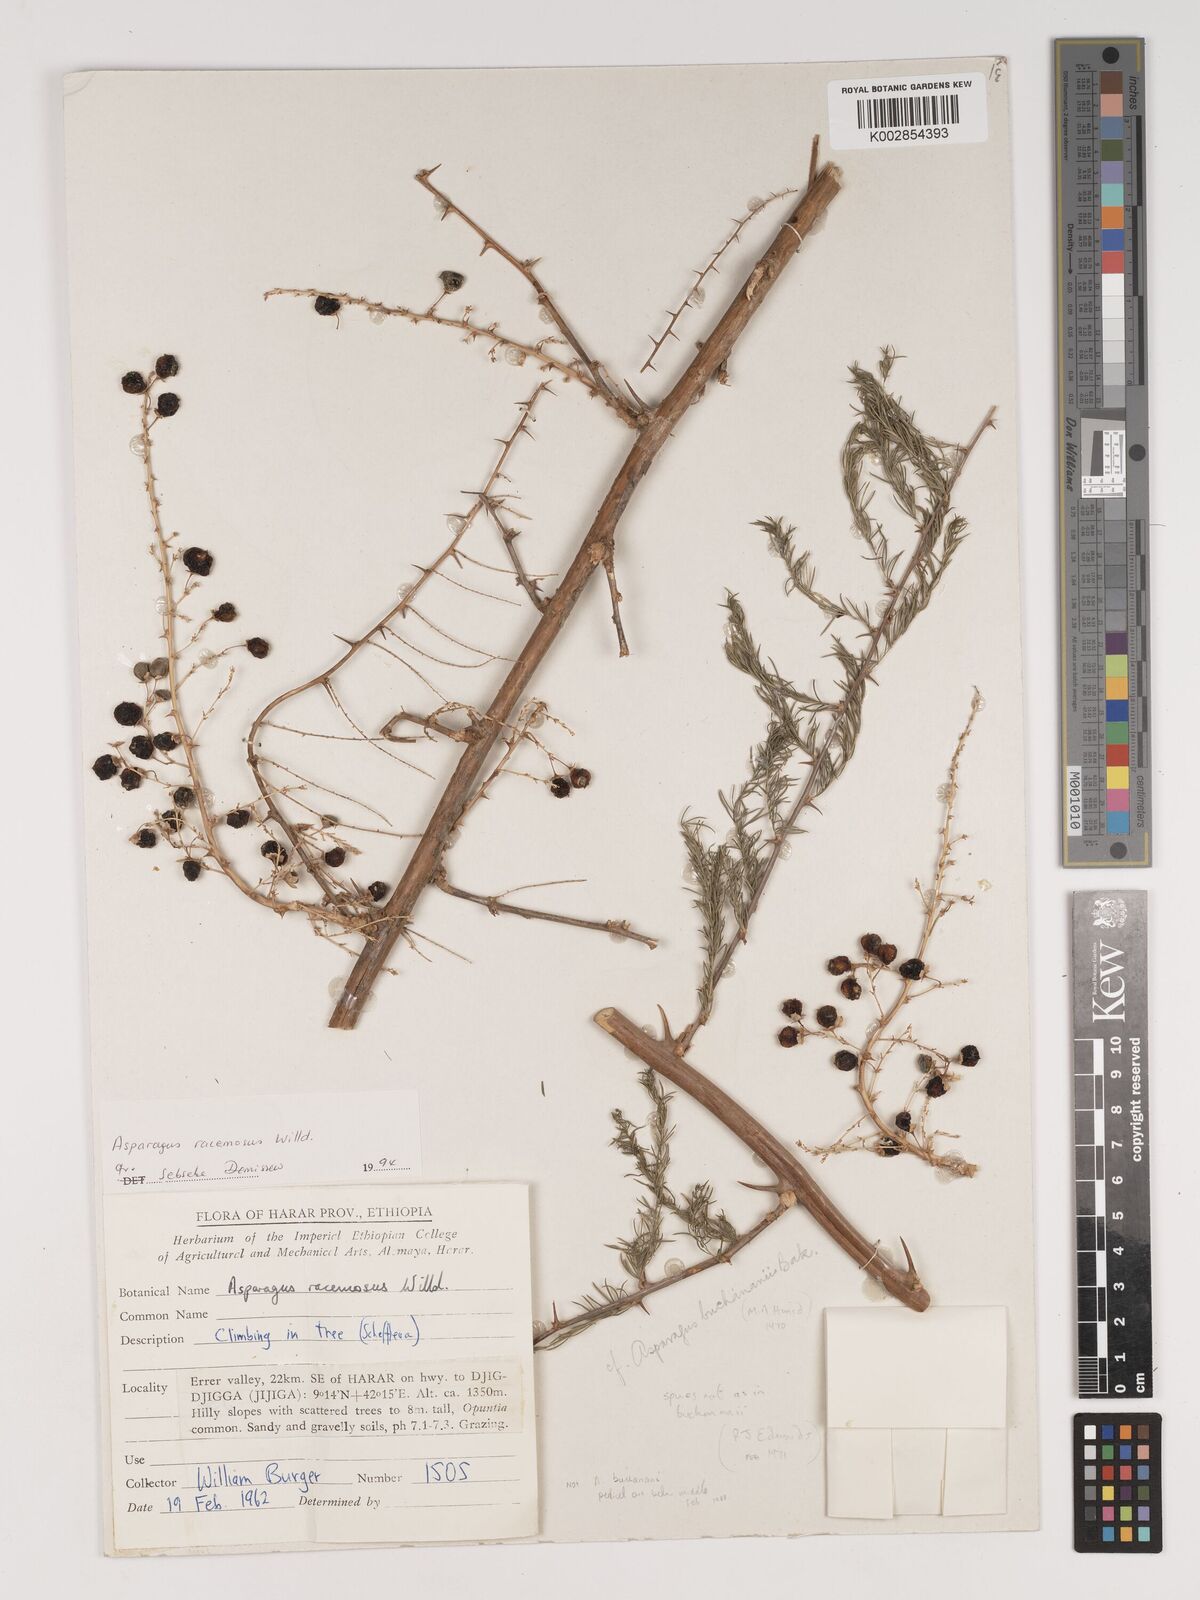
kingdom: Plantae
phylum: Tracheophyta
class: Liliopsida
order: Asparagales
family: Asparagaceae
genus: Asparagus
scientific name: Asparagus racemosus
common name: Asparagus-fern
